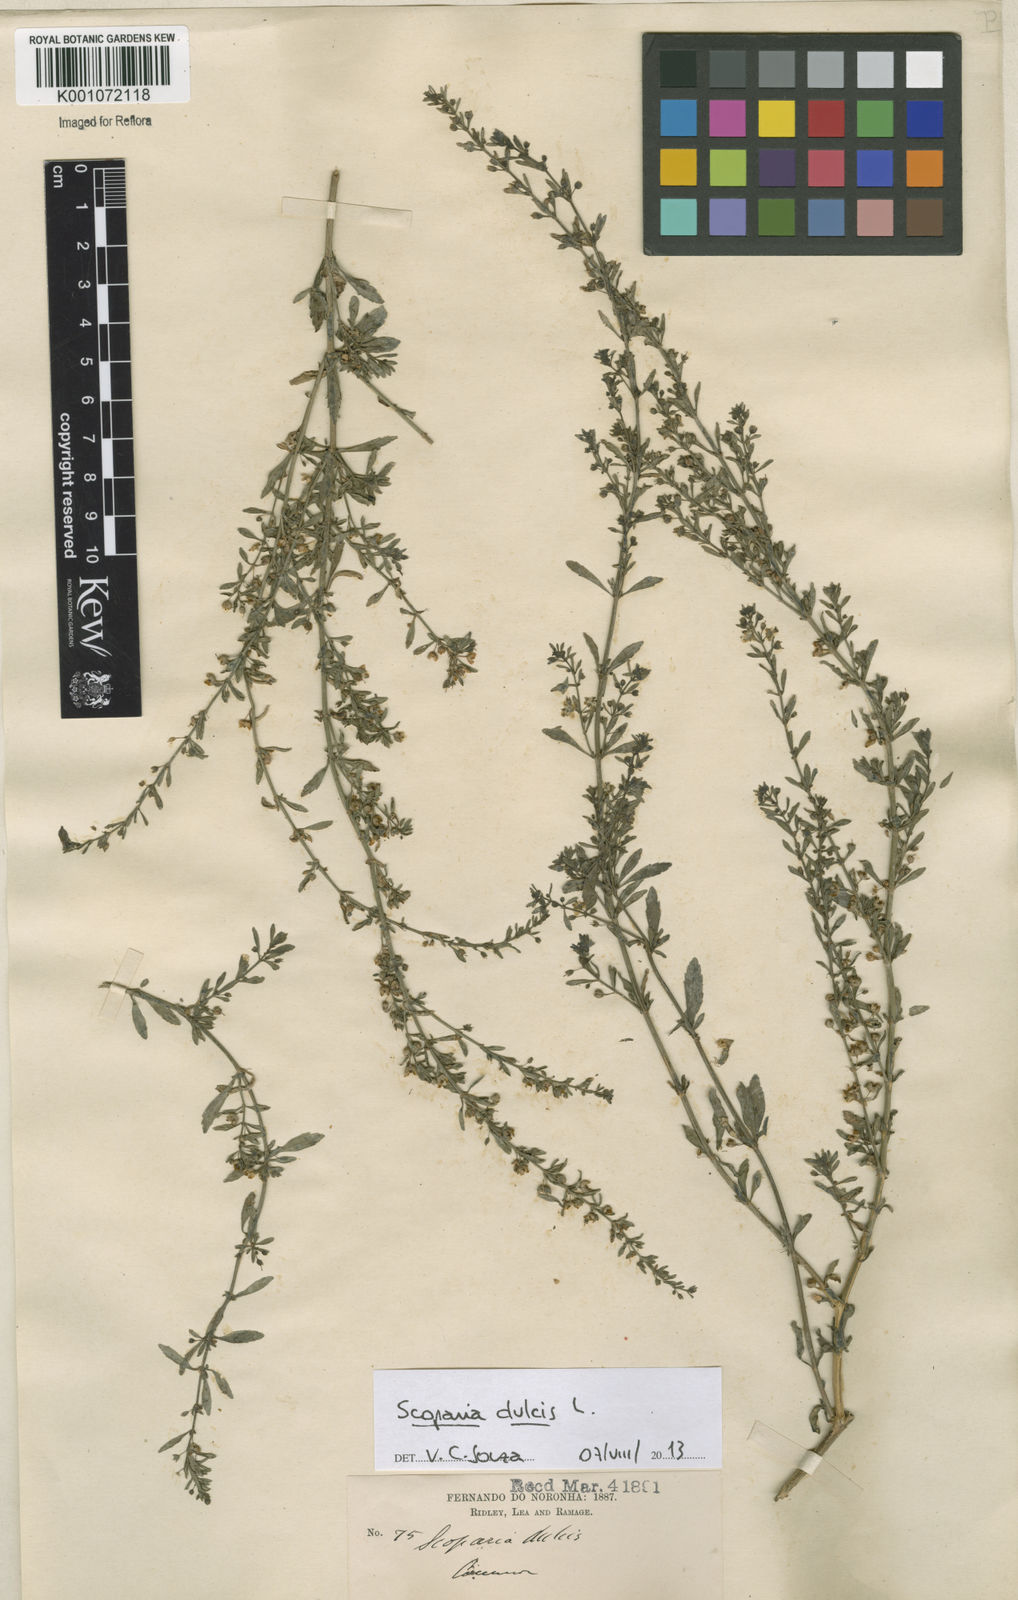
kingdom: Plantae
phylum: Tracheophyta
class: Magnoliopsida
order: Lamiales
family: Plantaginaceae
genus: Scoparia
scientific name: Scoparia dulcis
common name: Scoparia-weed
